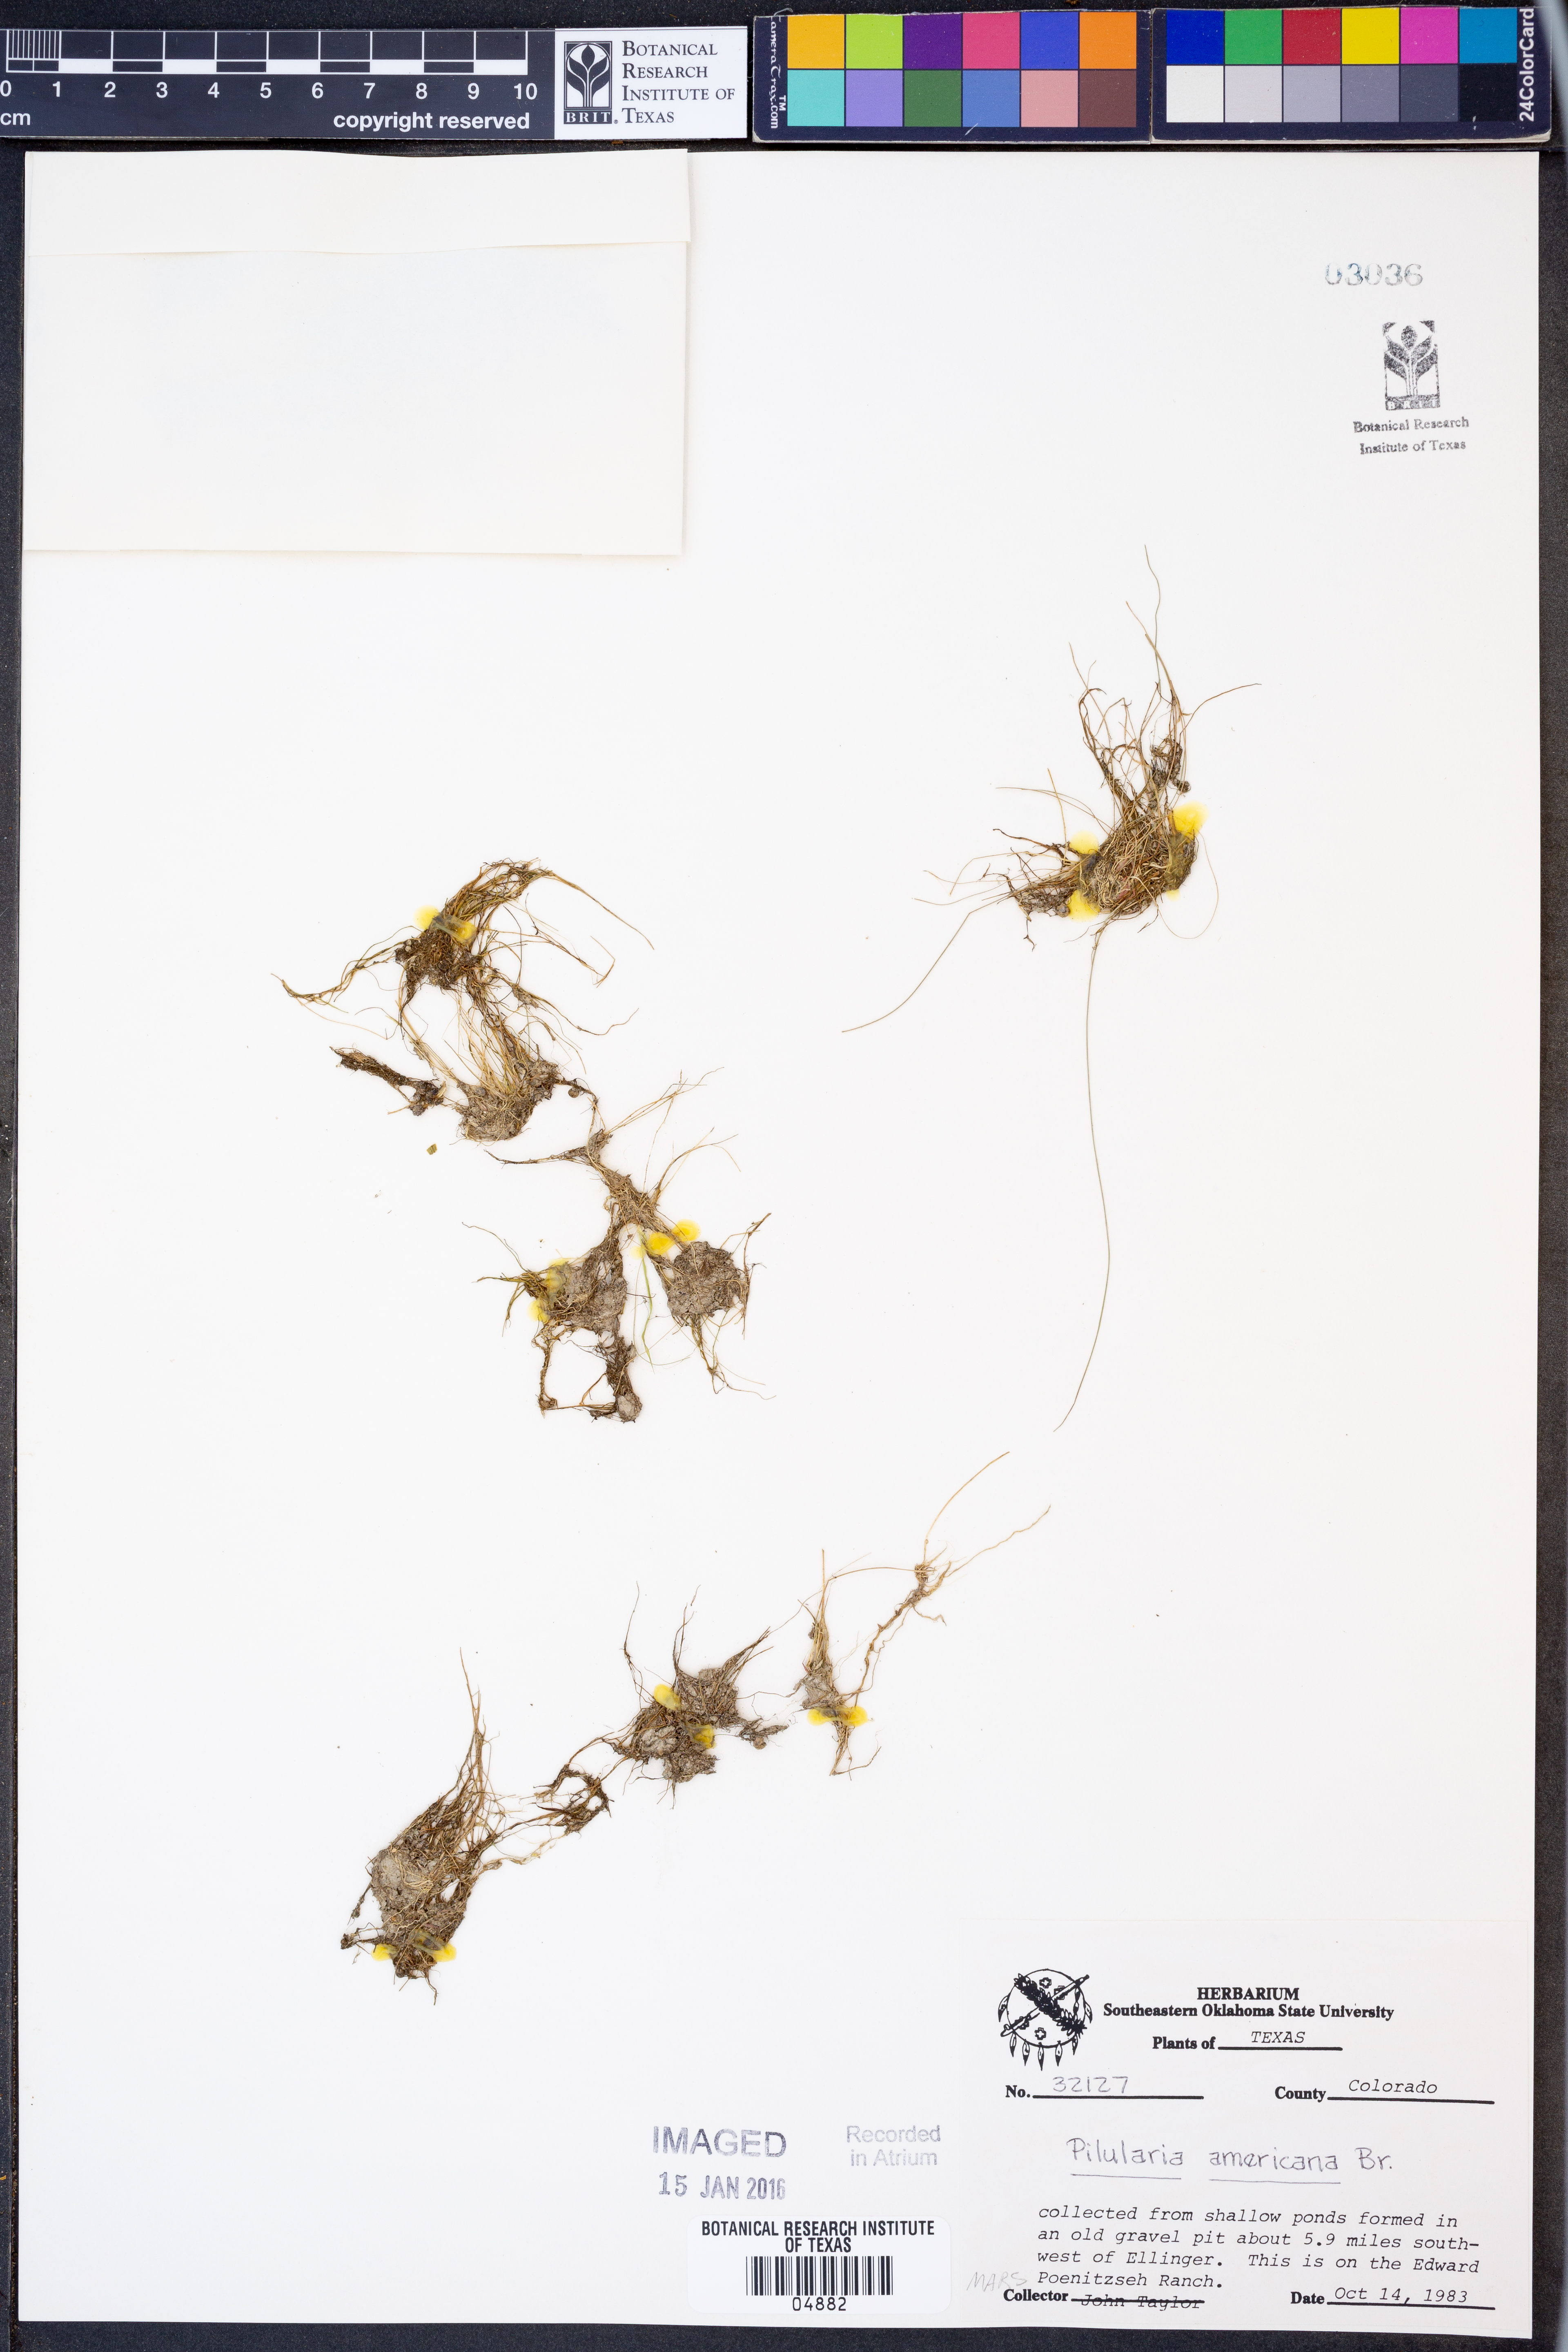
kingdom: Plantae
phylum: Tracheophyta
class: Polypodiopsida
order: Salviniales
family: Marsileaceae
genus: Pilularia
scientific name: Pilularia americana
